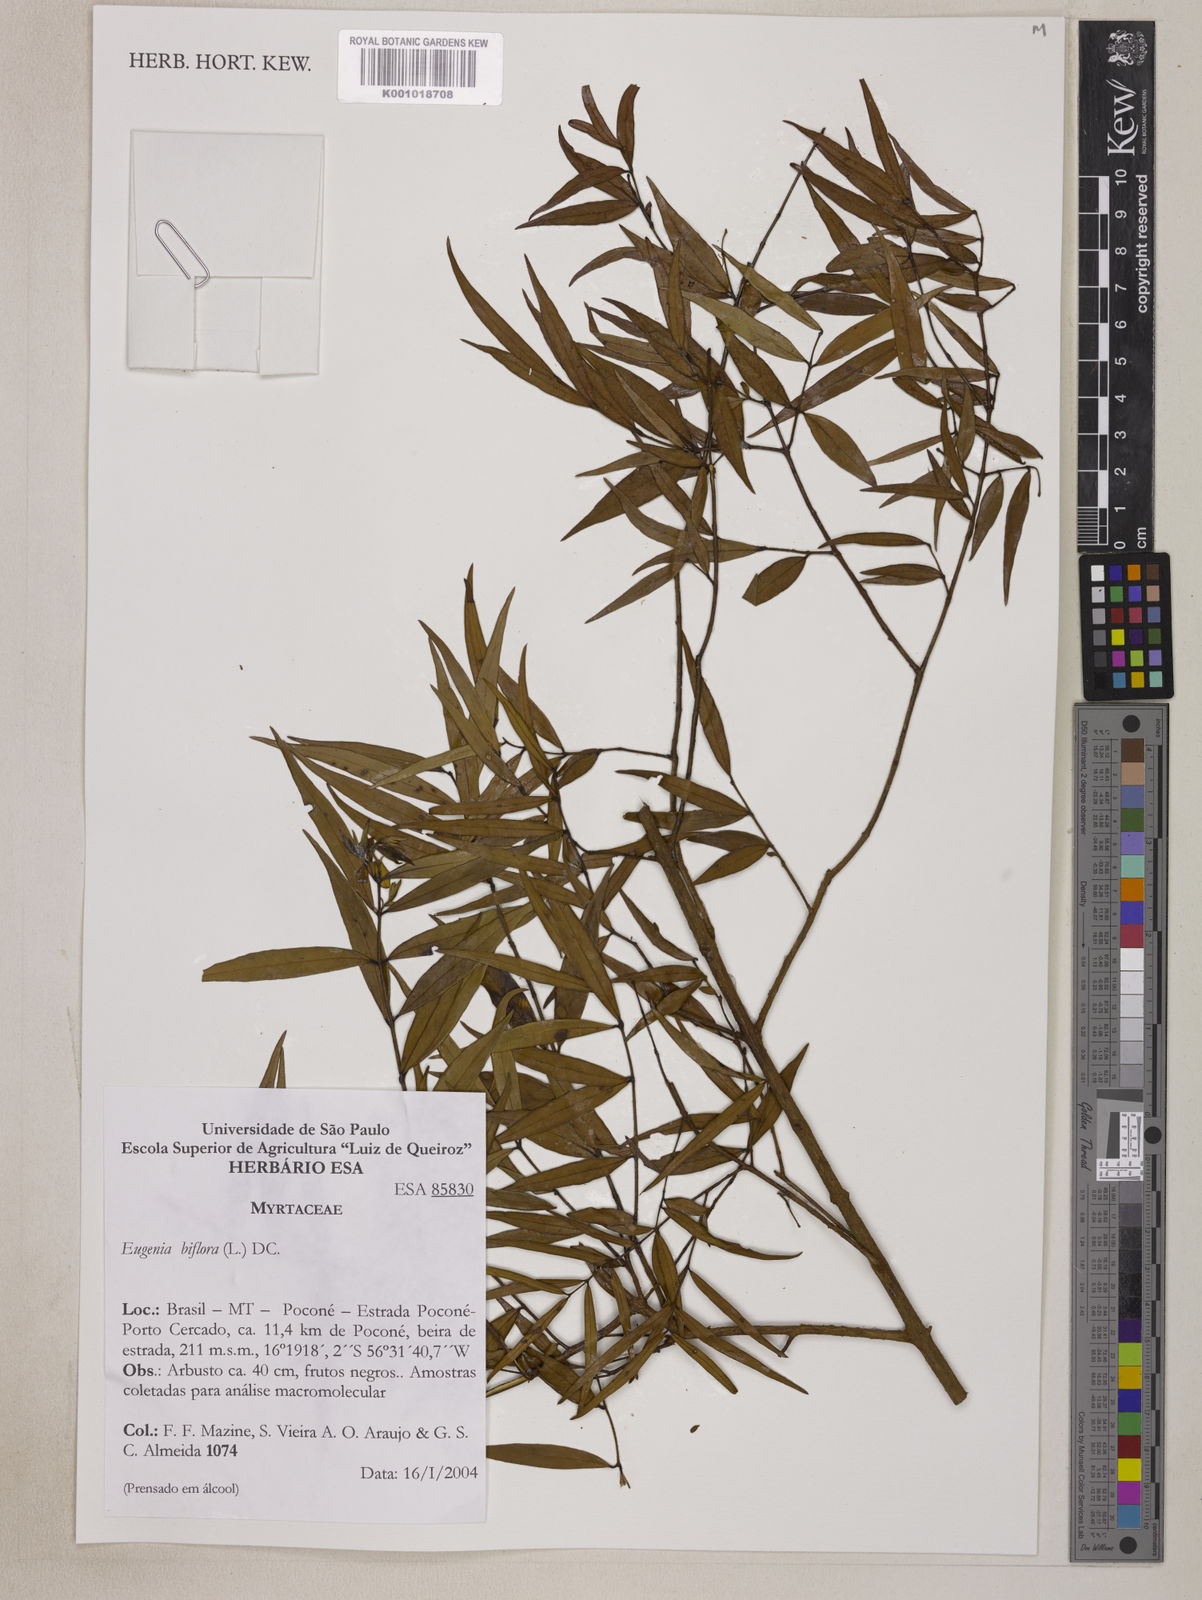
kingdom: Plantae
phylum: Tracheophyta
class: Magnoliopsida
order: Myrtales
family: Myrtaceae
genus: Eugenia
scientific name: Eugenia biflora
